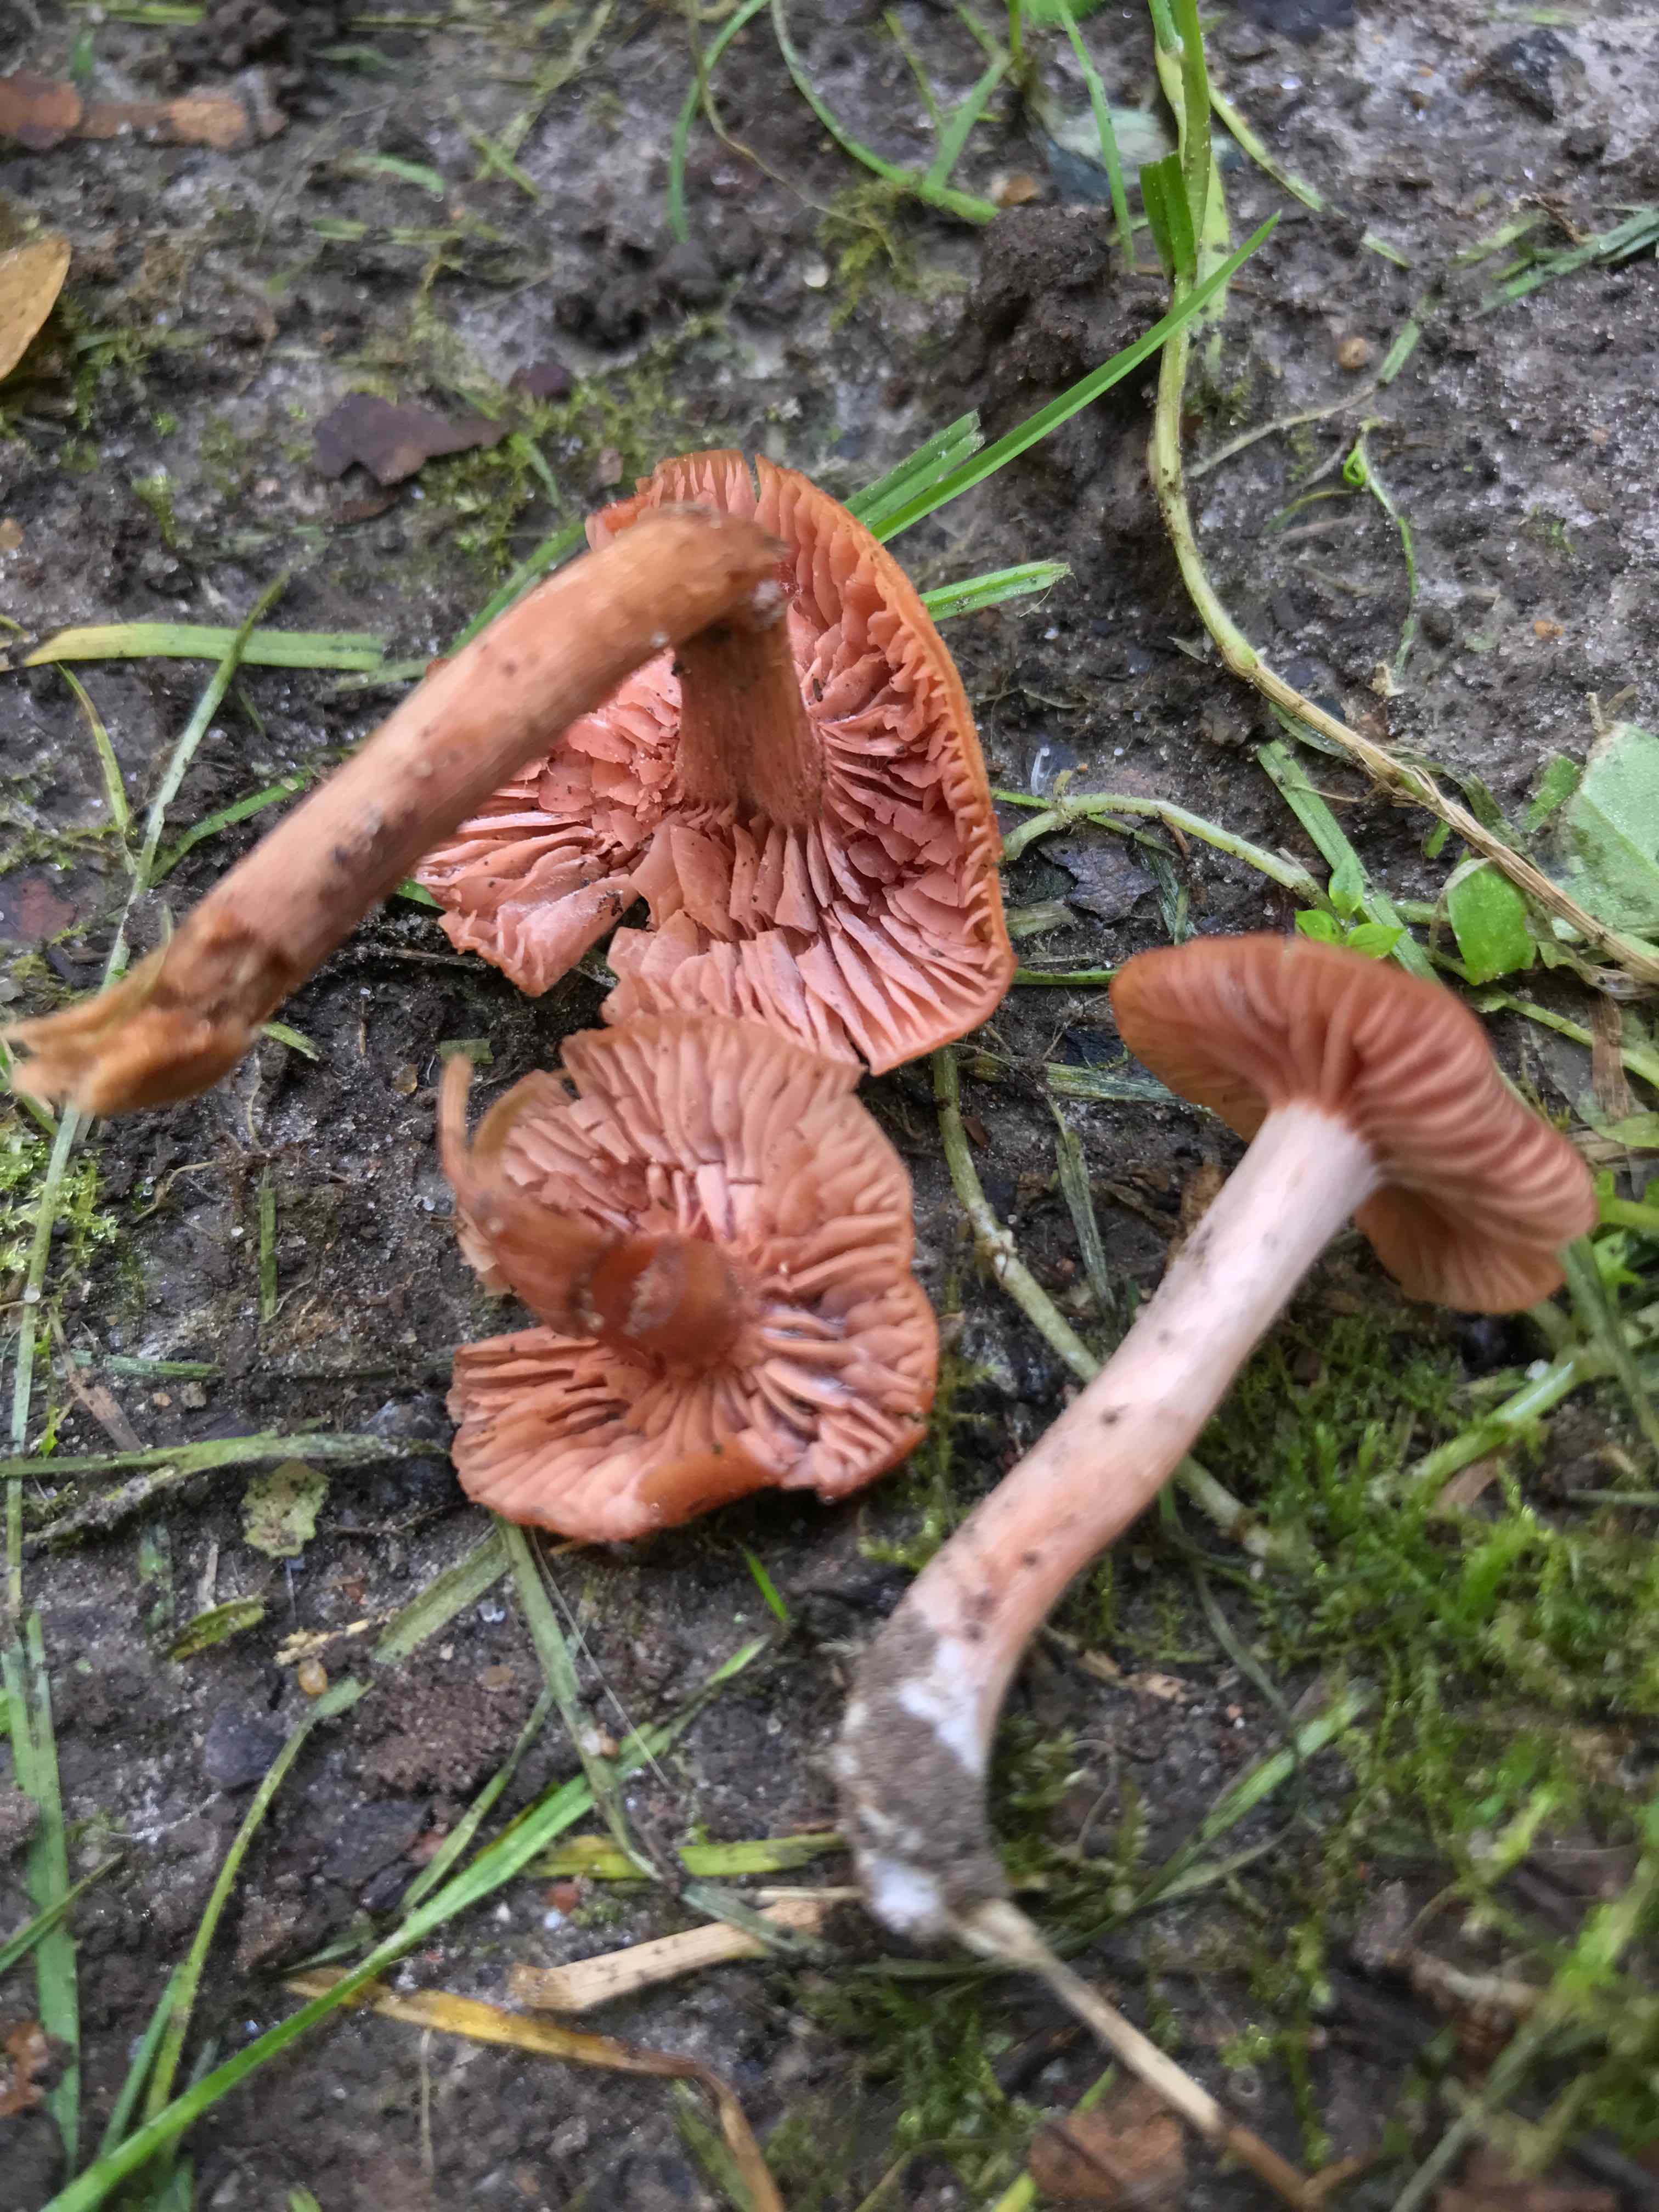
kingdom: Fungi
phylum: Basidiomycota
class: Agaricomycetes
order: Agaricales
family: Hydnangiaceae
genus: Laccaria
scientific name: Laccaria laccata
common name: rød ametysthat
